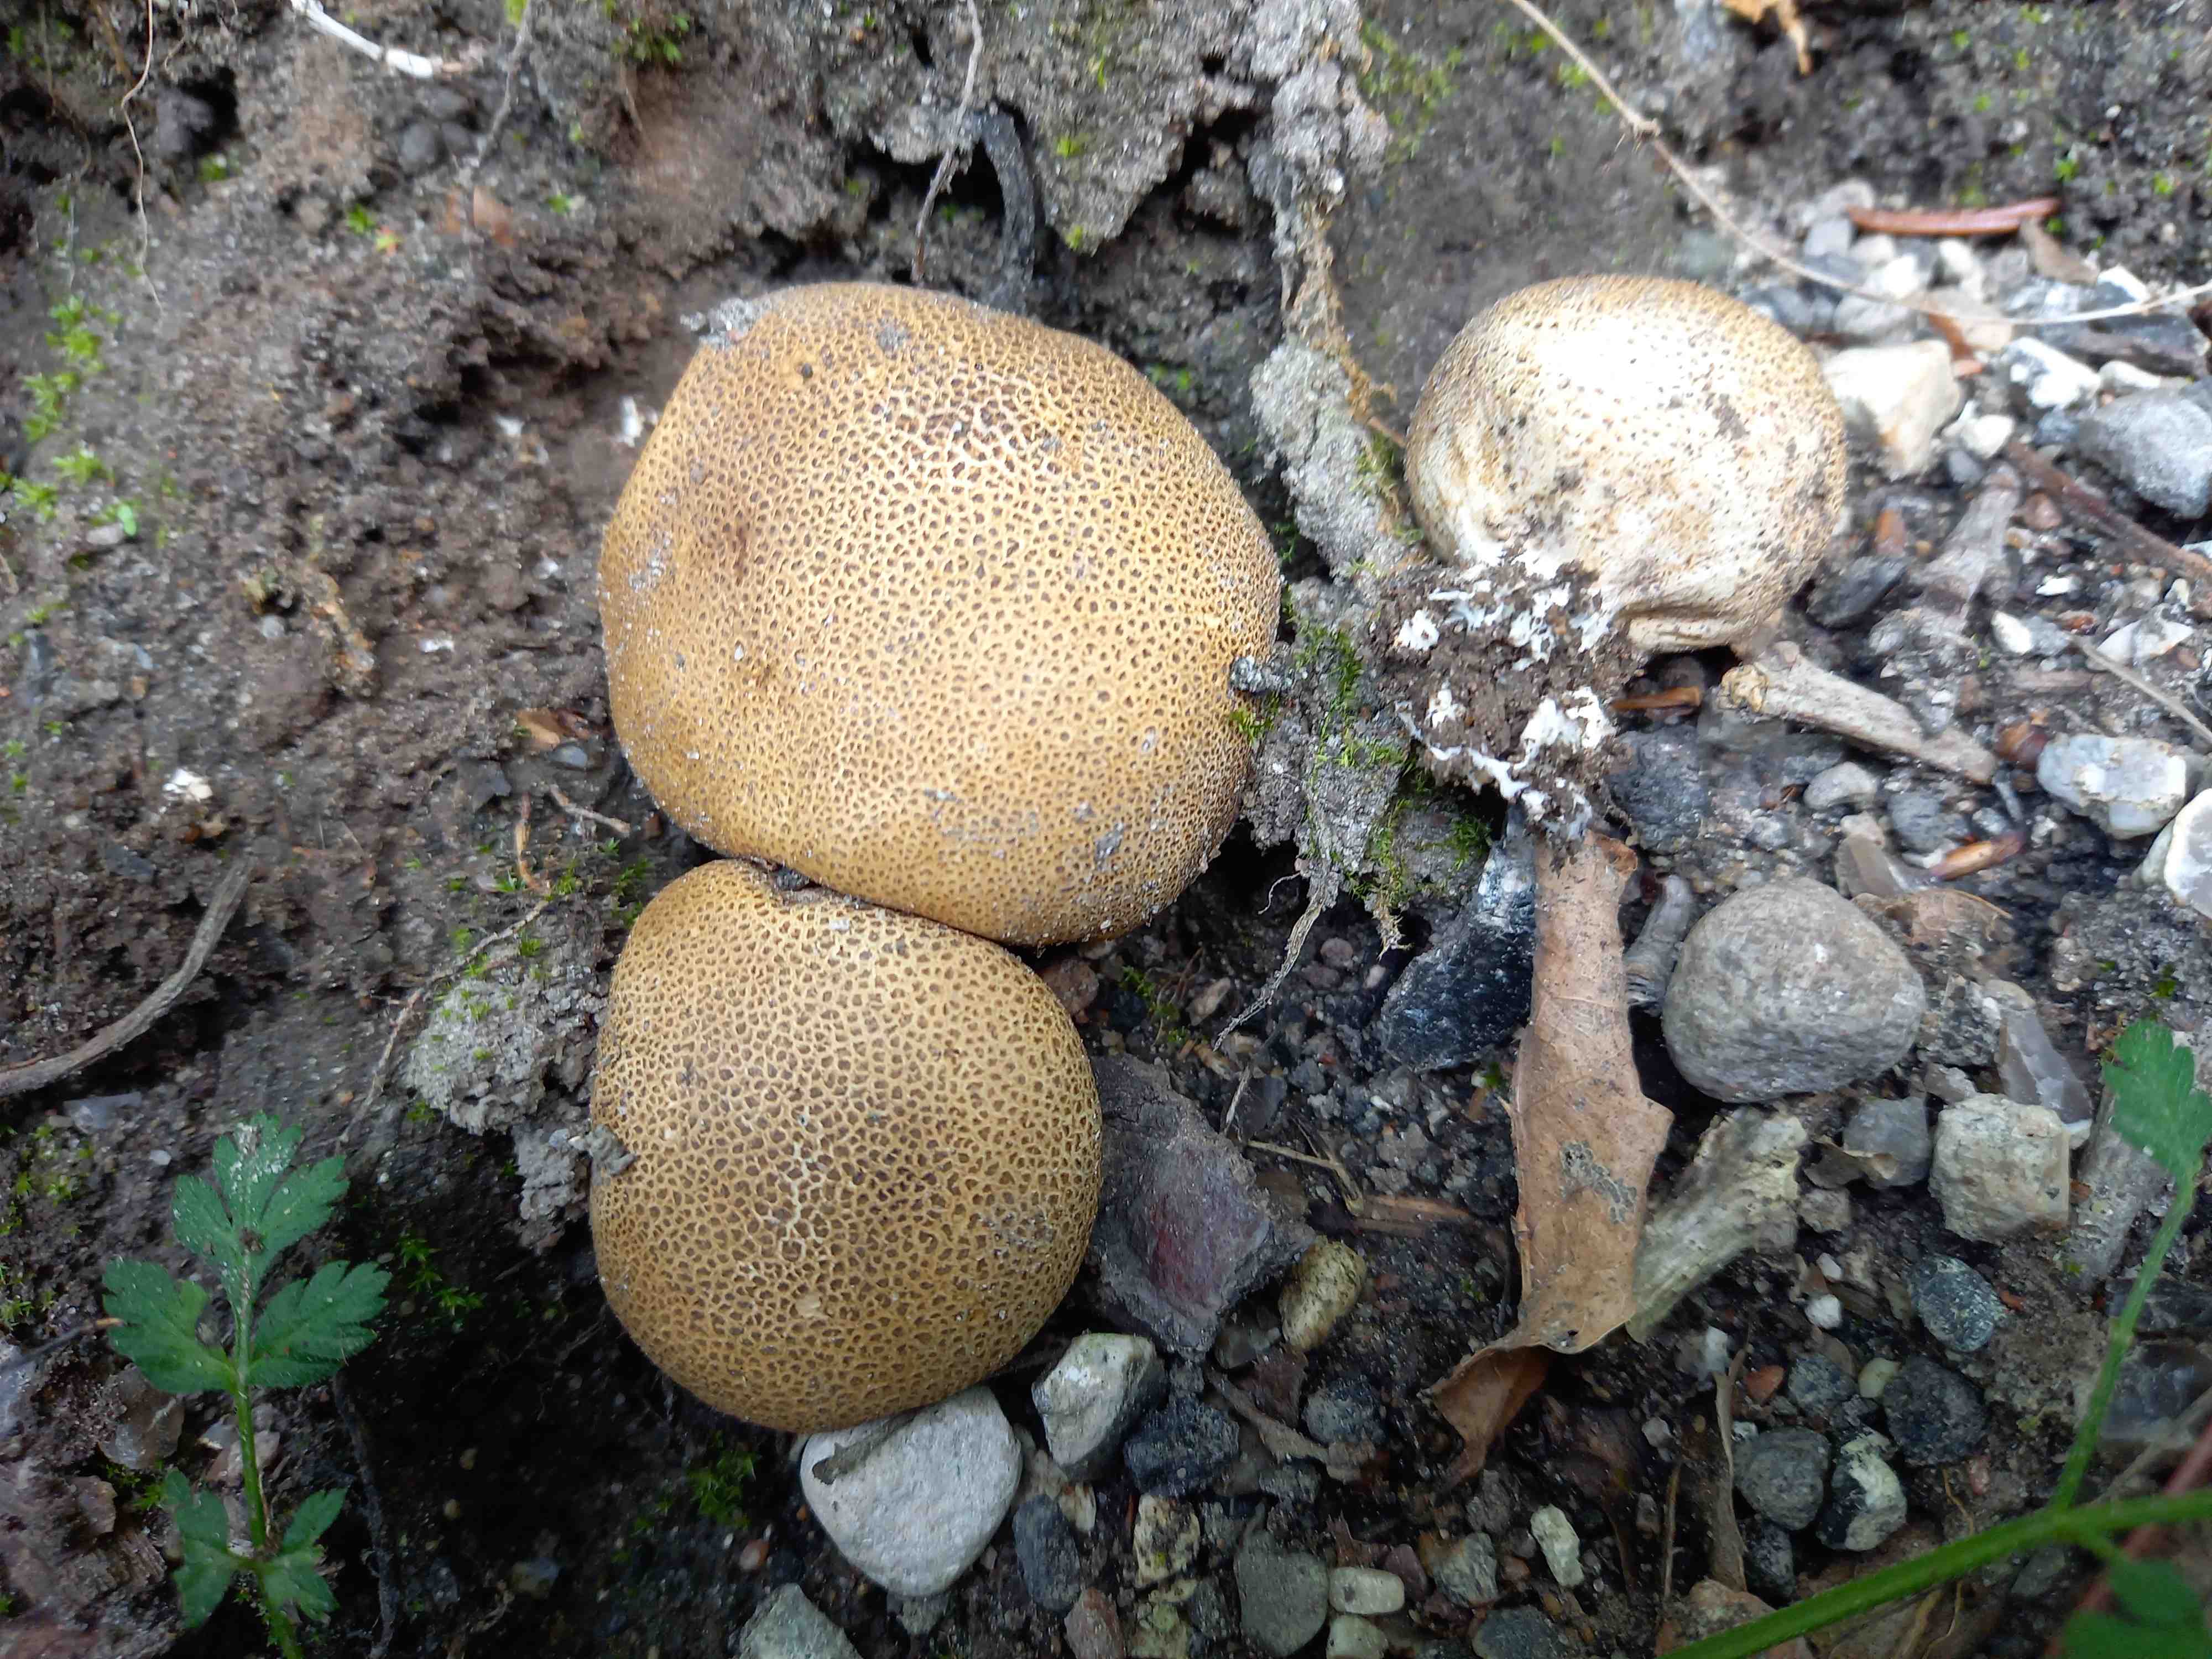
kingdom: Fungi
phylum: Basidiomycota
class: Agaricomycetes
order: Boletales
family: Sclerodermataceae
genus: Scleroderma
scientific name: Scleroderma areolatum
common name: plettet bruskbold
